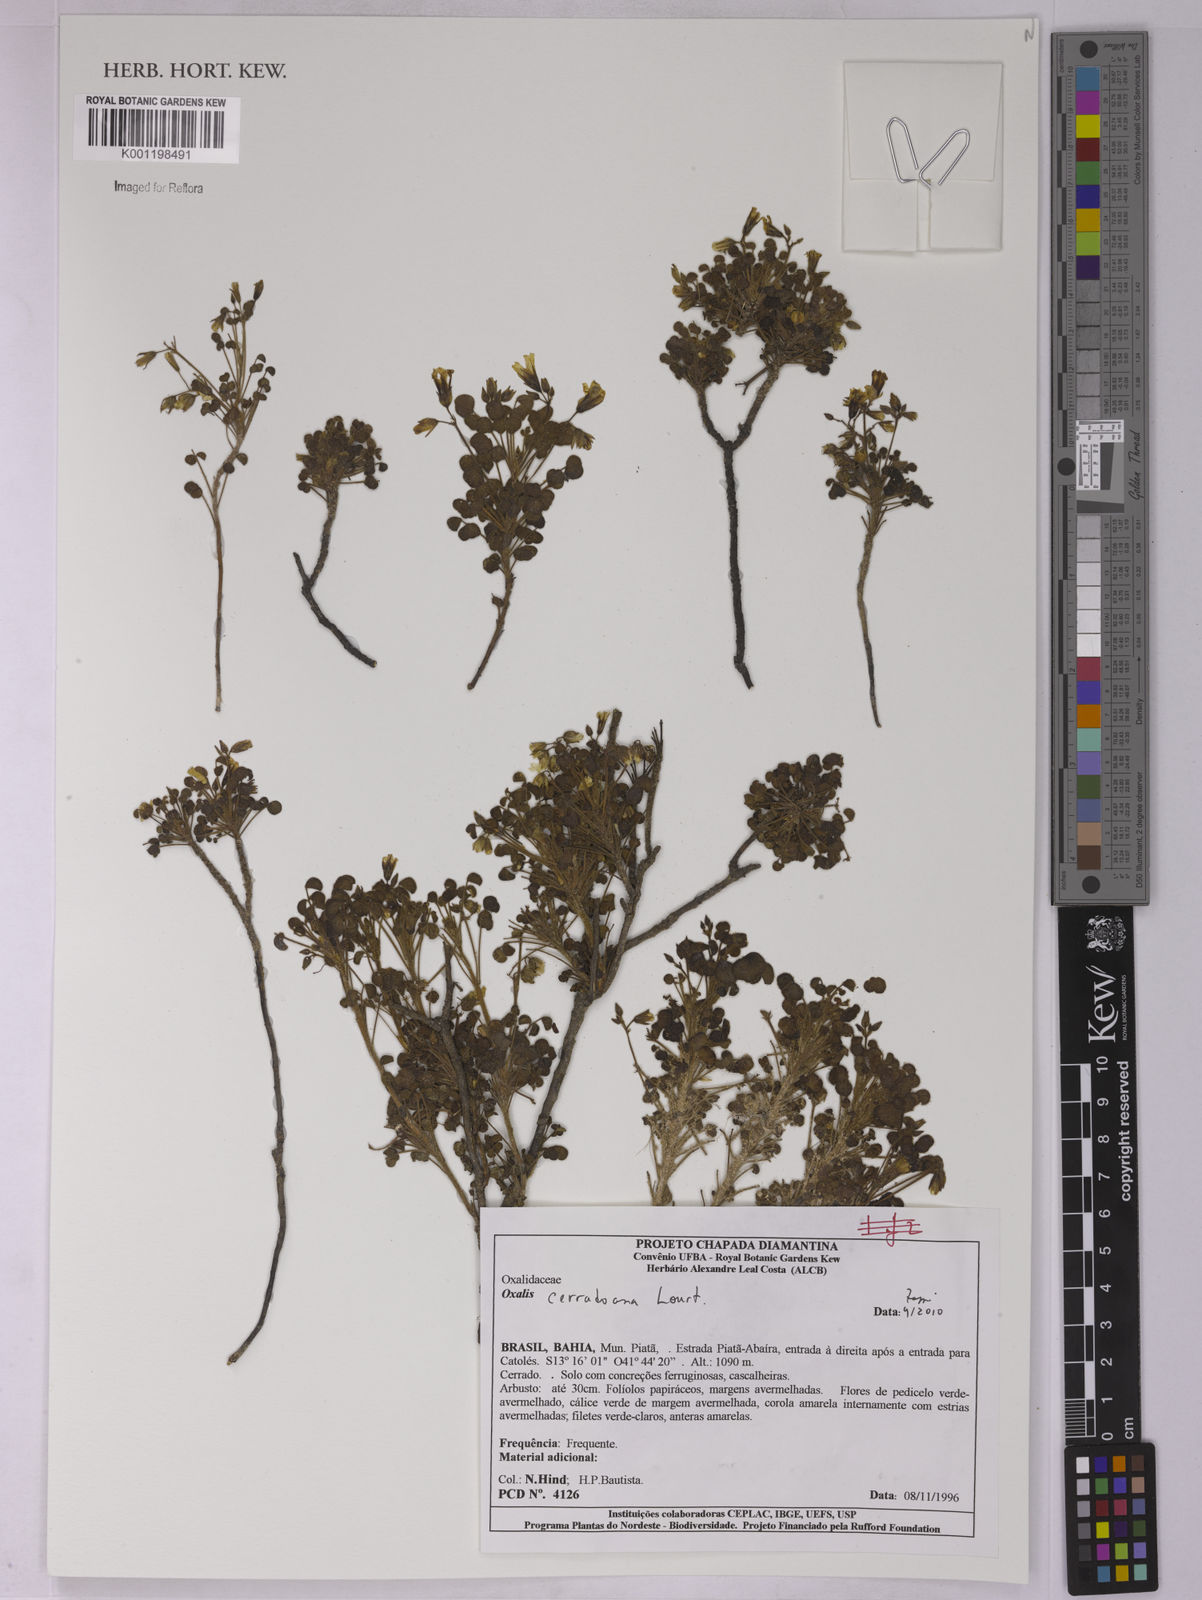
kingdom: Plantae
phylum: Tracheophyta
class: Magnoliopsida
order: Oxalidales
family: Oxalidaceae
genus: Oxalis
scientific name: Oxalis cerradoana
